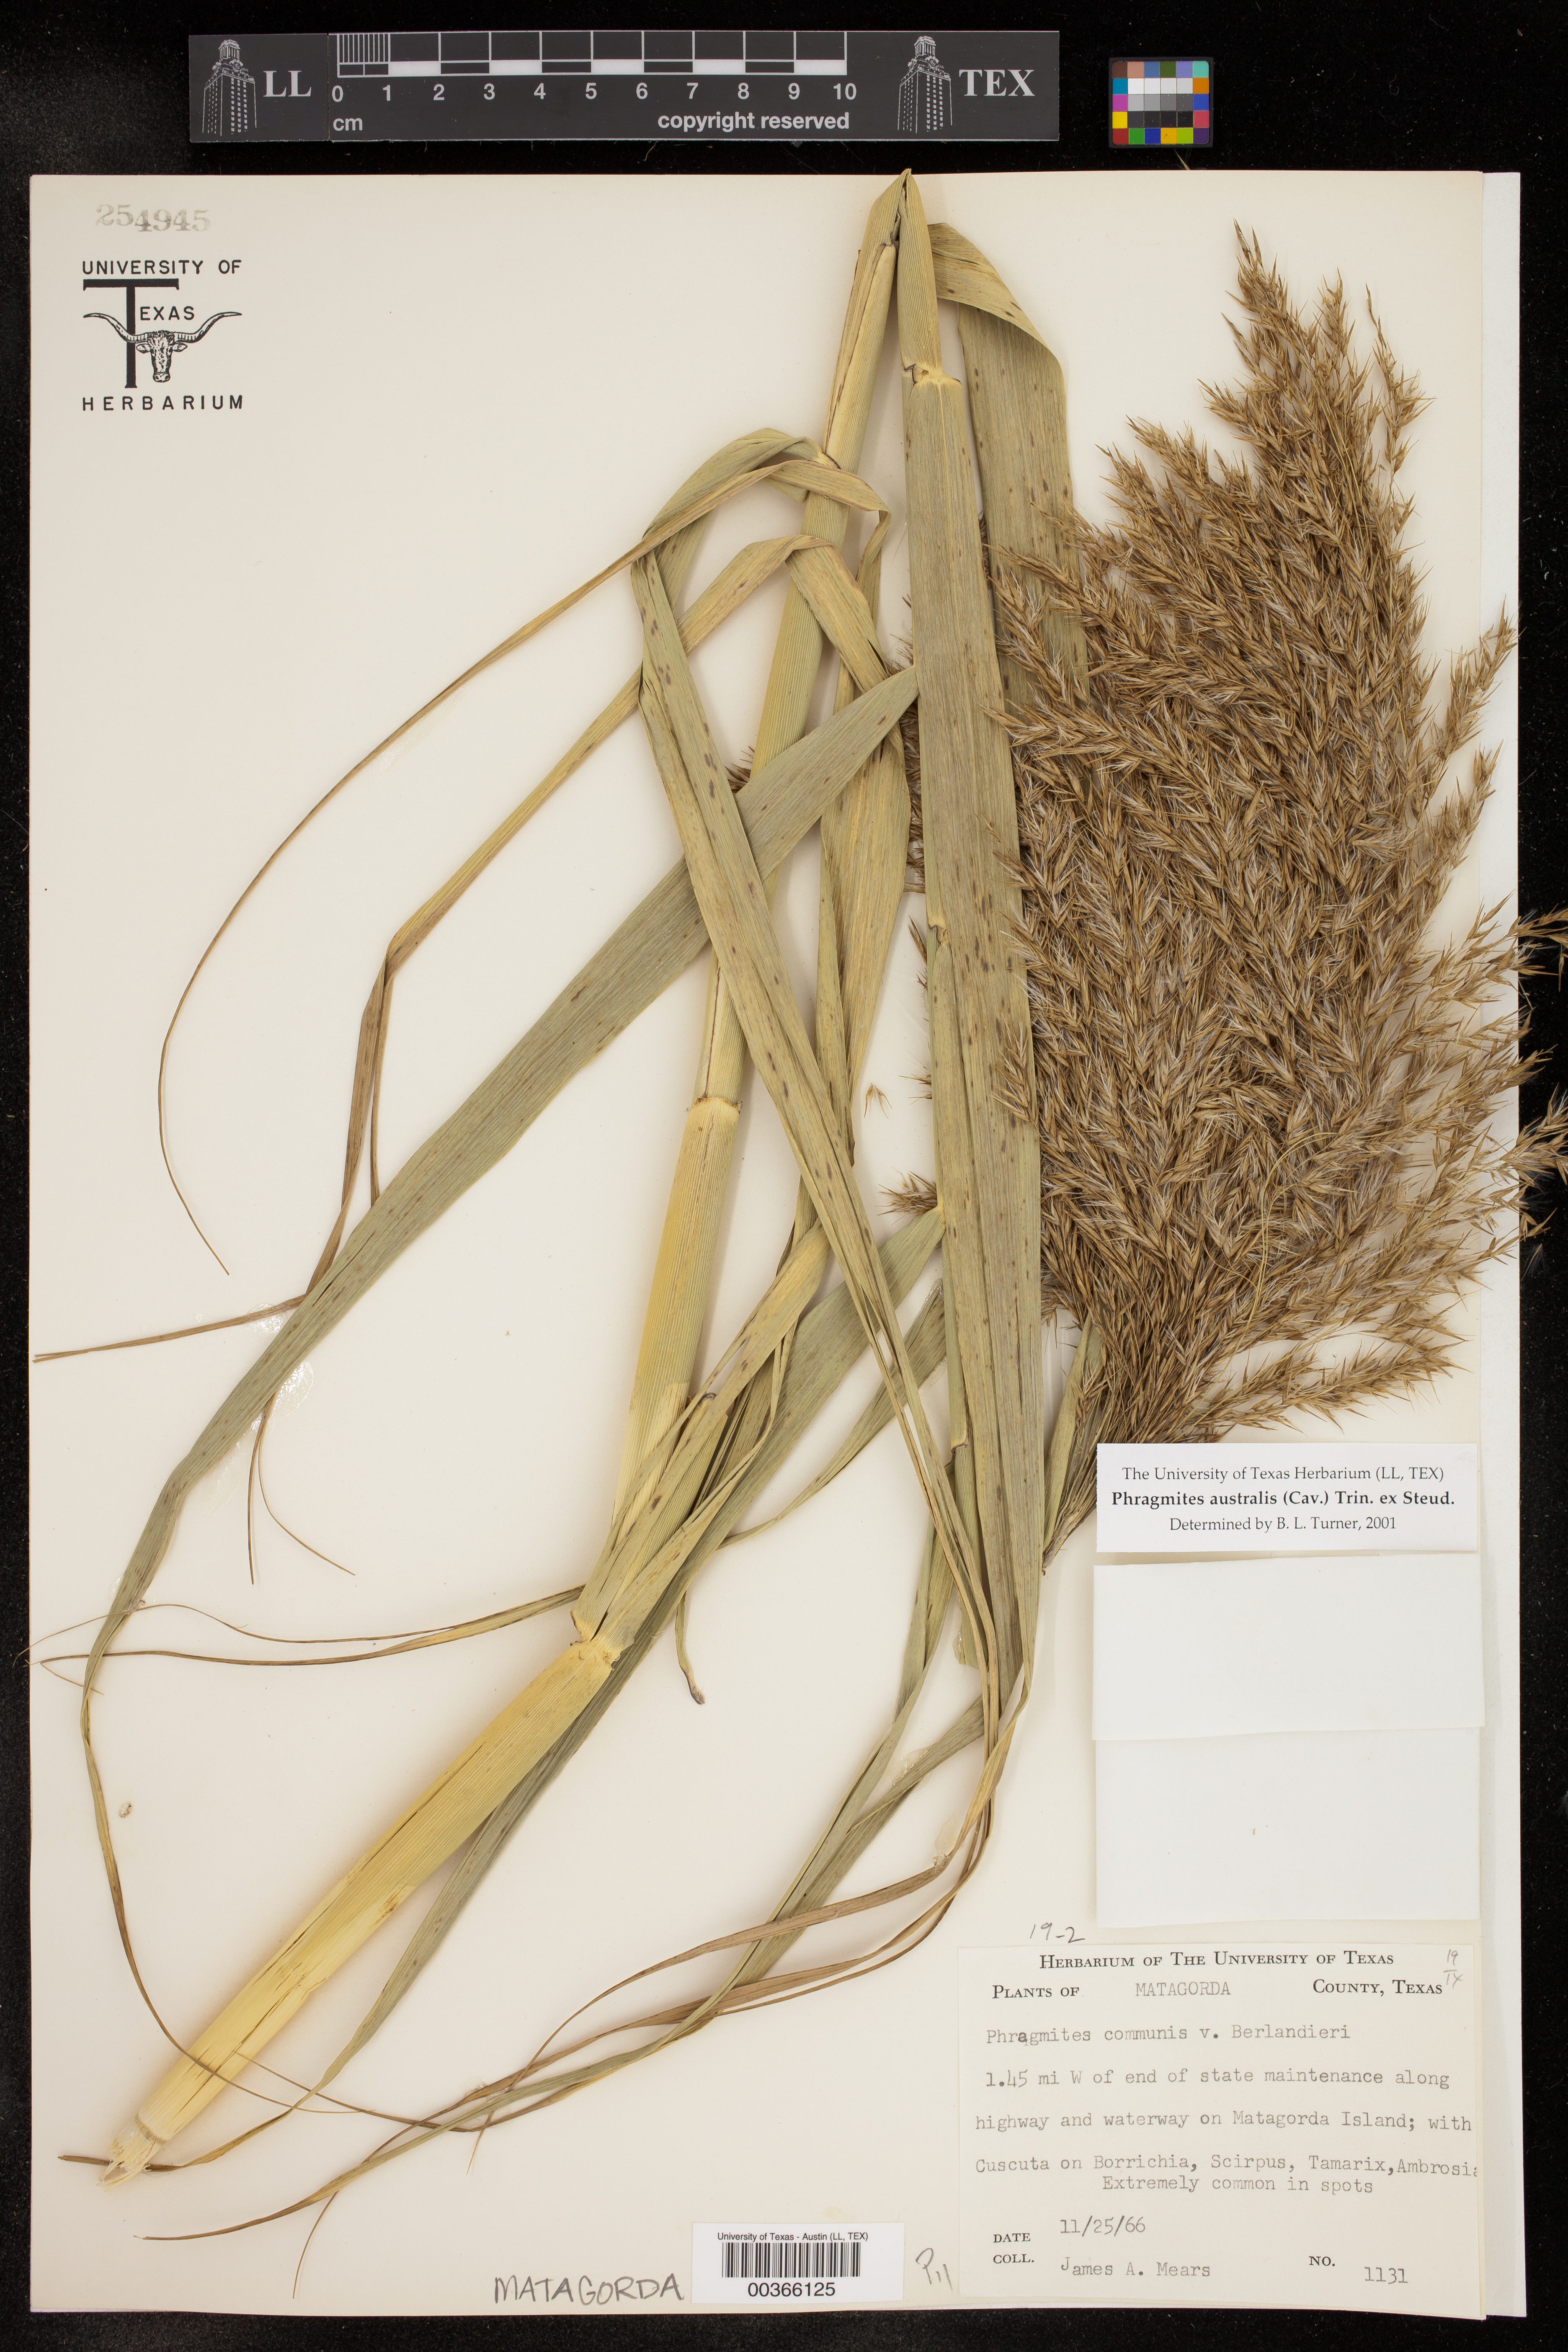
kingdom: Plantae
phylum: Tracheophyta
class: Liliopsida
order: Poales
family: Poaceae
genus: Phragmites
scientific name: Phragmites australis
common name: Common reed
